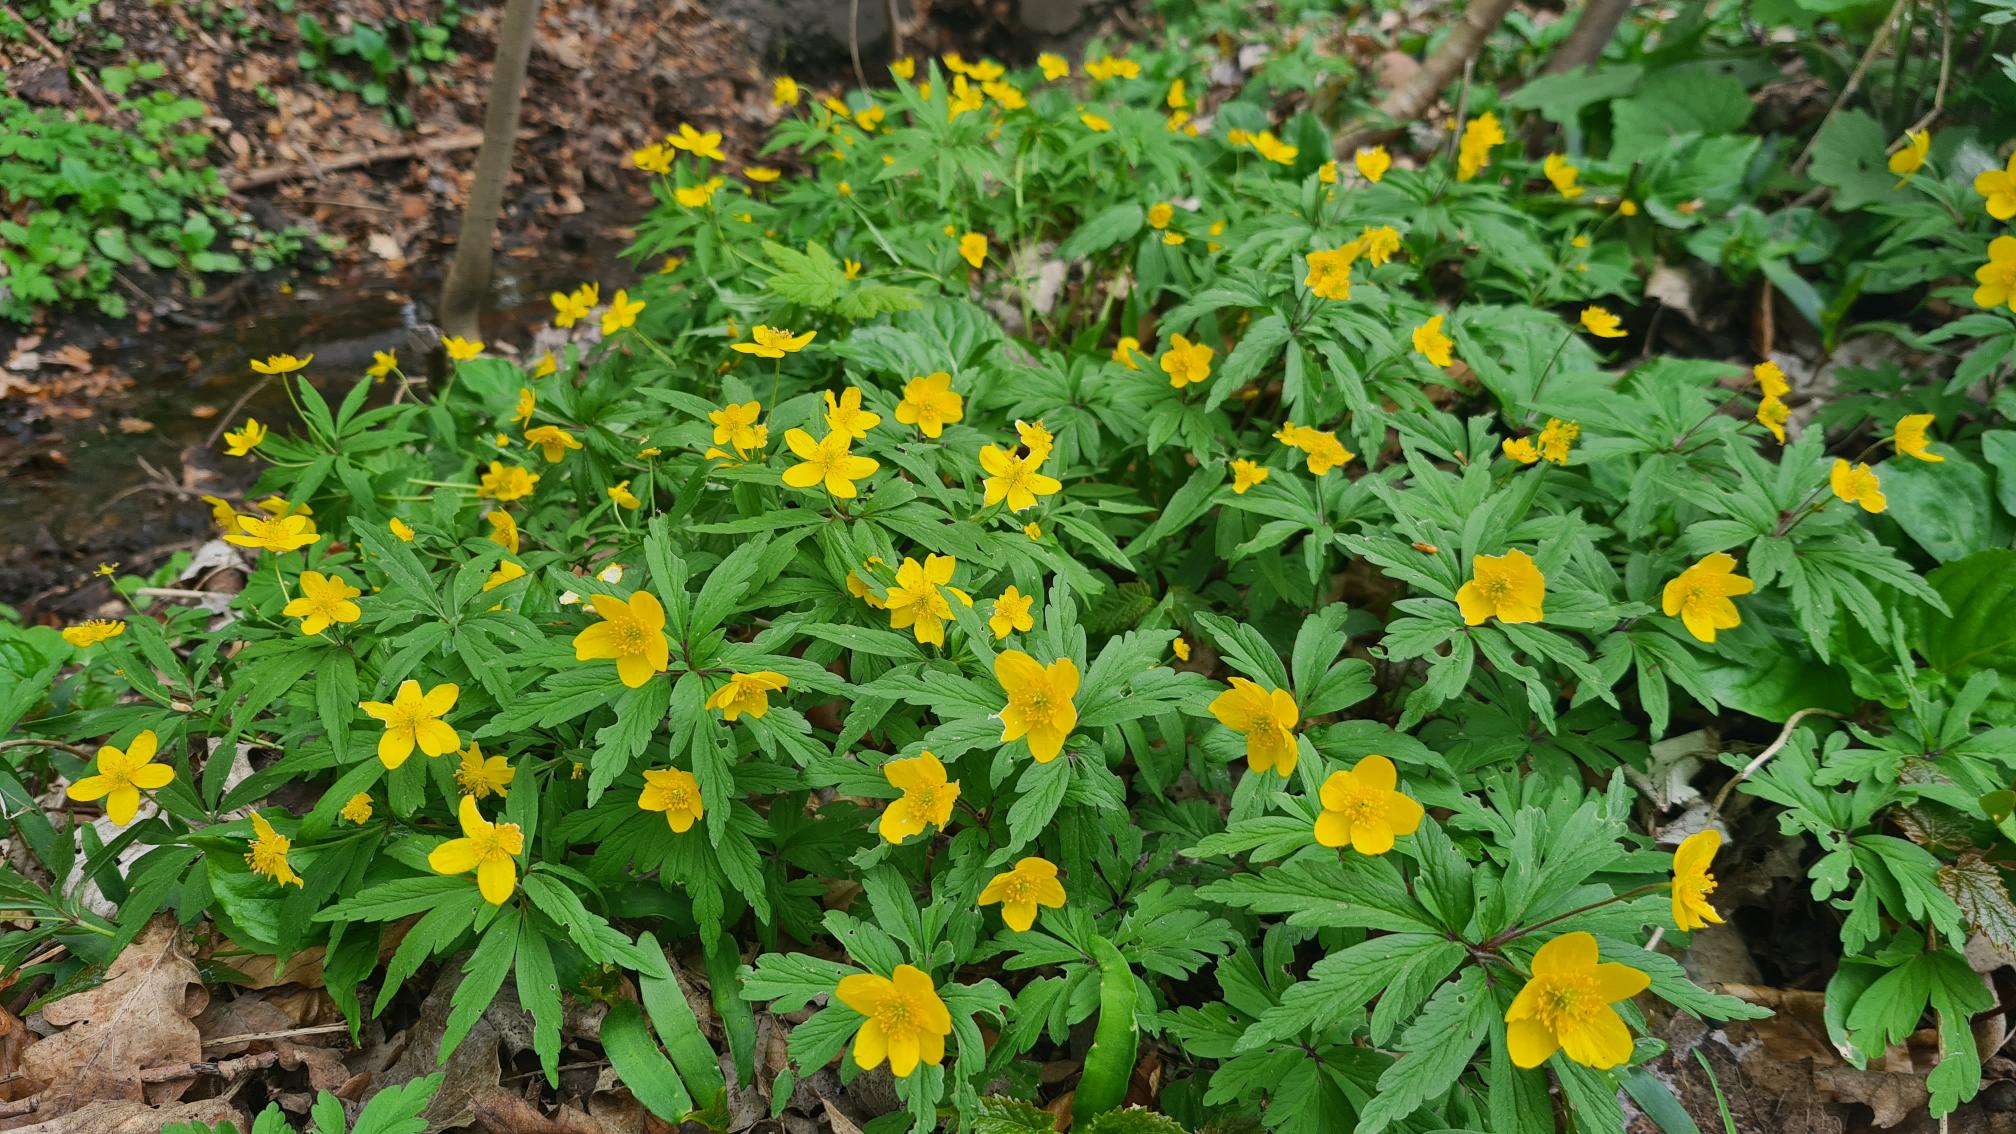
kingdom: Plantae
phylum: Tracheophyta
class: Magnoliopsida
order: Ranunculales
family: Ranunculaceae
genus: Anemone
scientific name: Anemone ranunculoides
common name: Gul anemone
